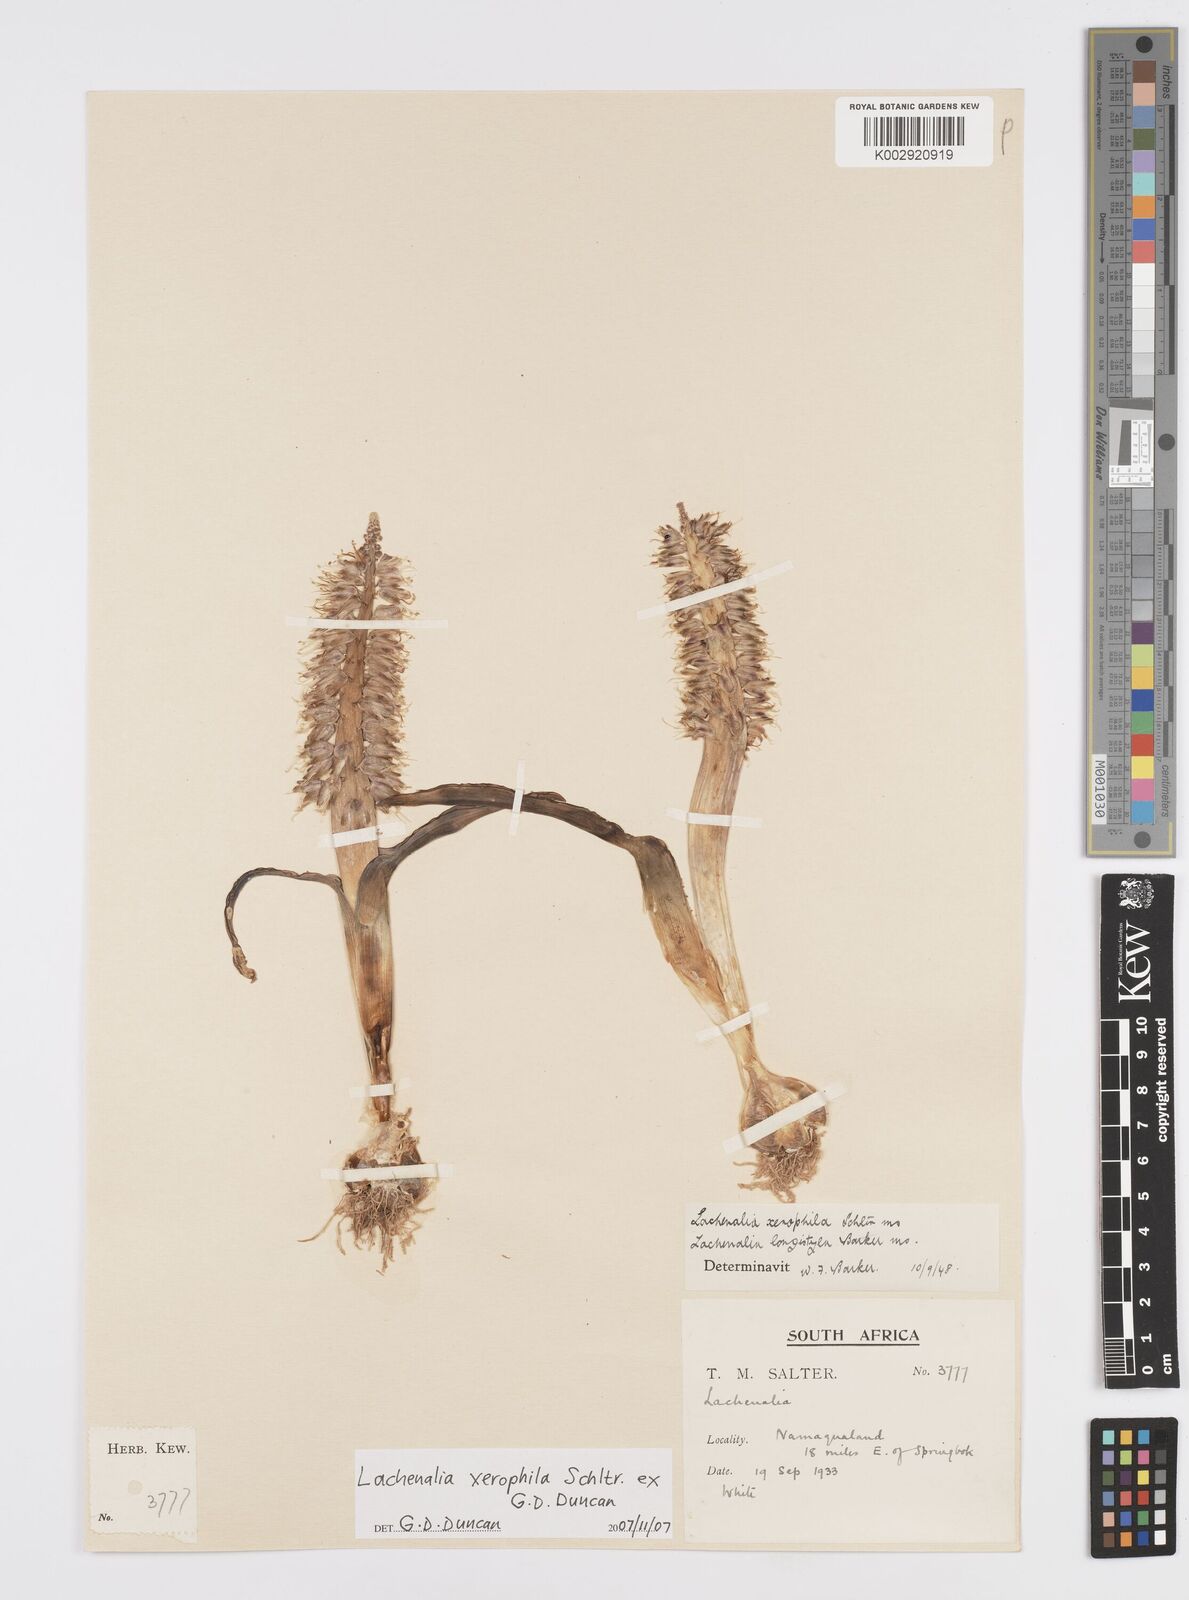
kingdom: Plantae
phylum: Tracheophyta
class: Liliopsida
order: Asparagales
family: Asparagaceae
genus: Lachenalia
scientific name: Lachenalia xerophila
